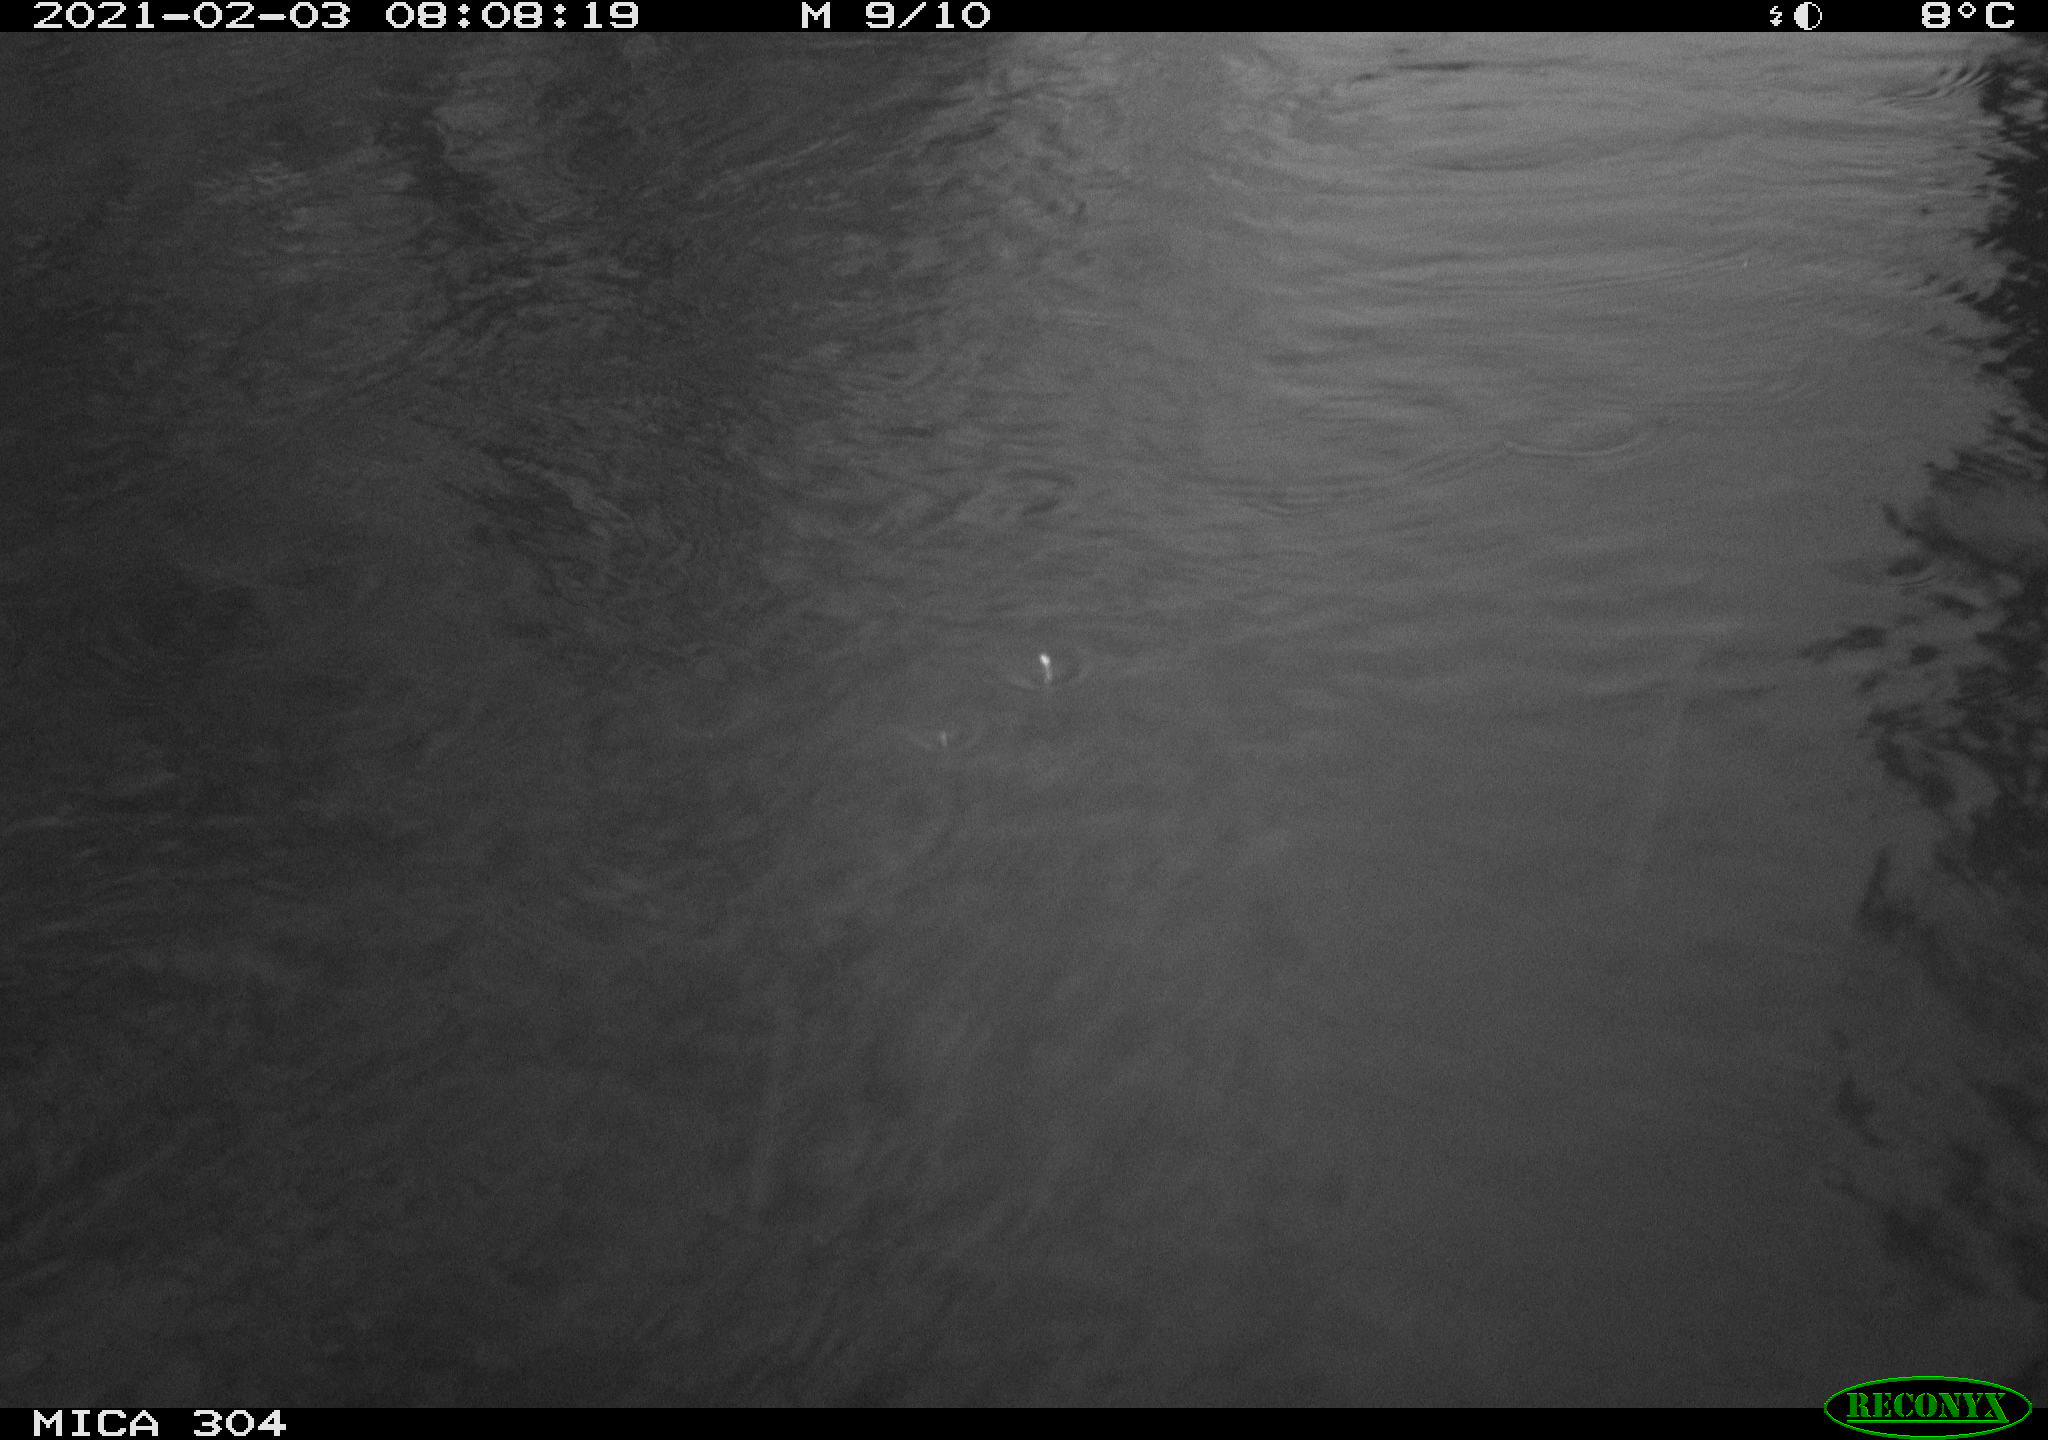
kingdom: Animalia
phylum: Chordata
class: Aves
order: Gruiformes
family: Rallidae
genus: Fulica
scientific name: Fulica atra
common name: Eurasian coot
